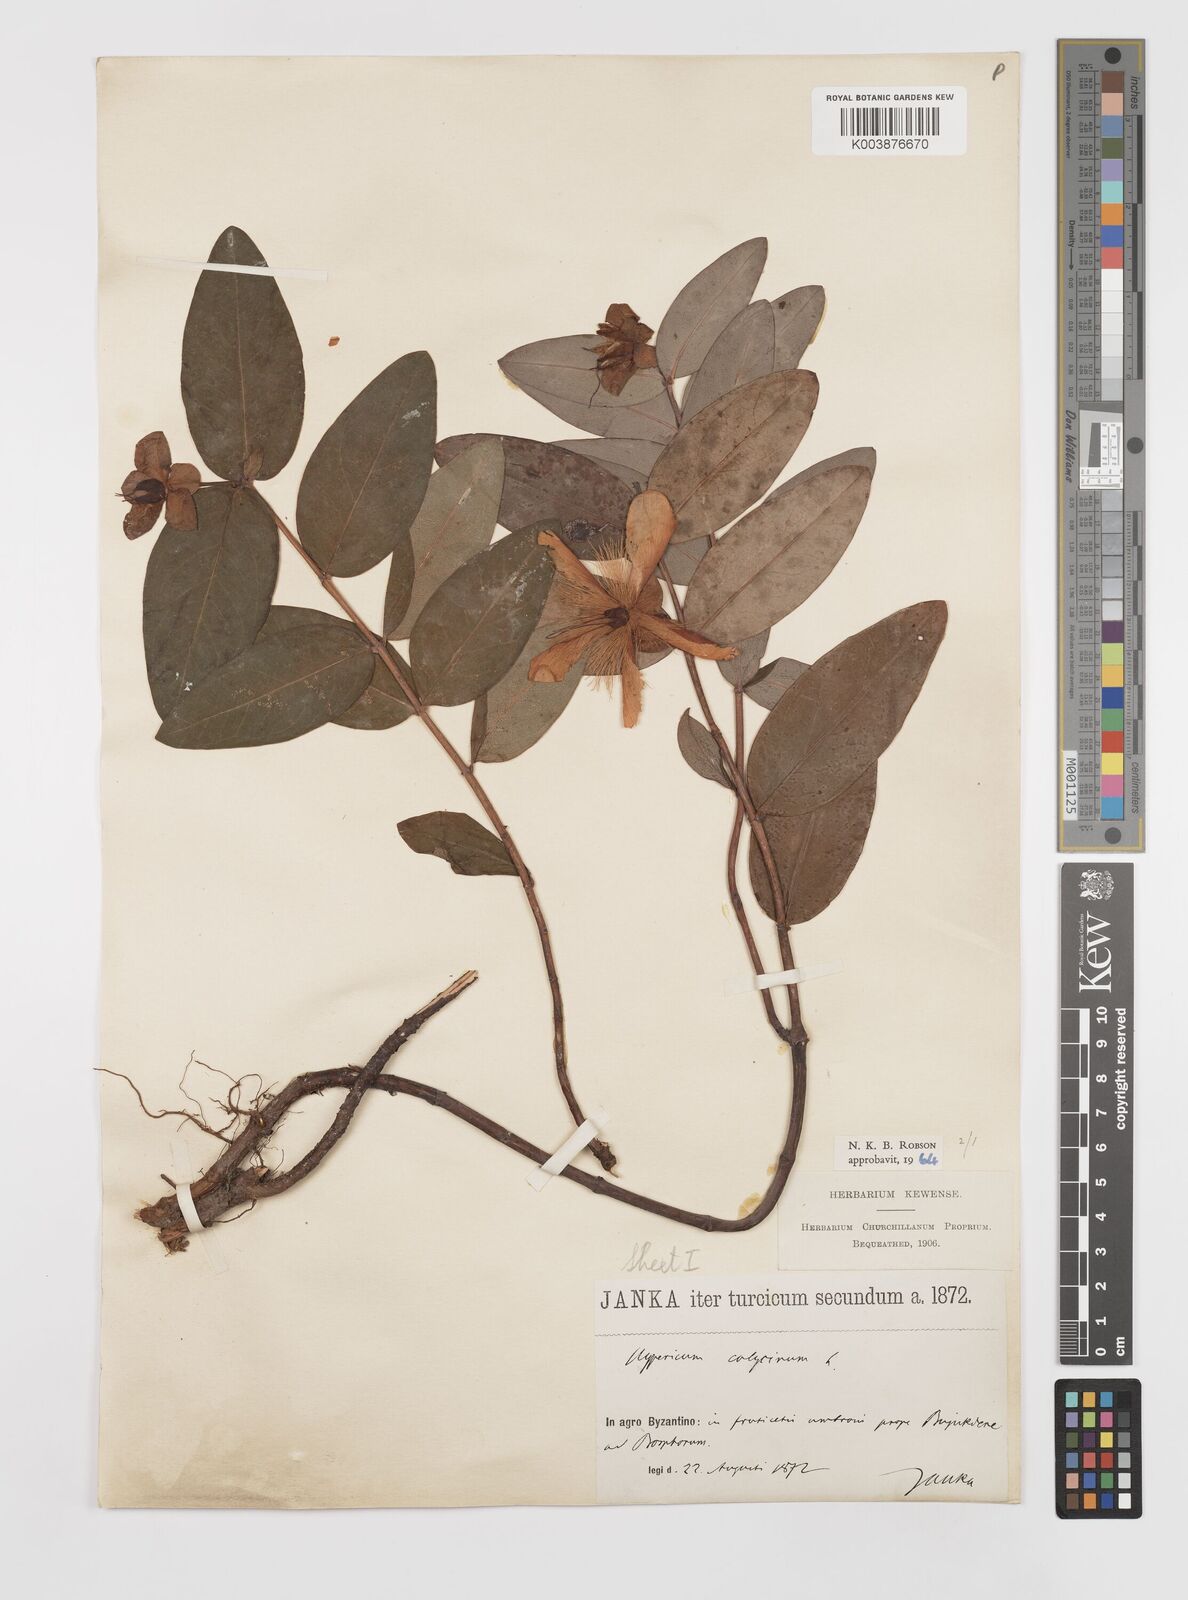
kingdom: Plantae
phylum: Tracheophyta
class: Magnoliopsida
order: Malpighiales
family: Hypericaceae
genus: Hypericum
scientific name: Hypericum calycinum
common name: Rose-of-sharon
